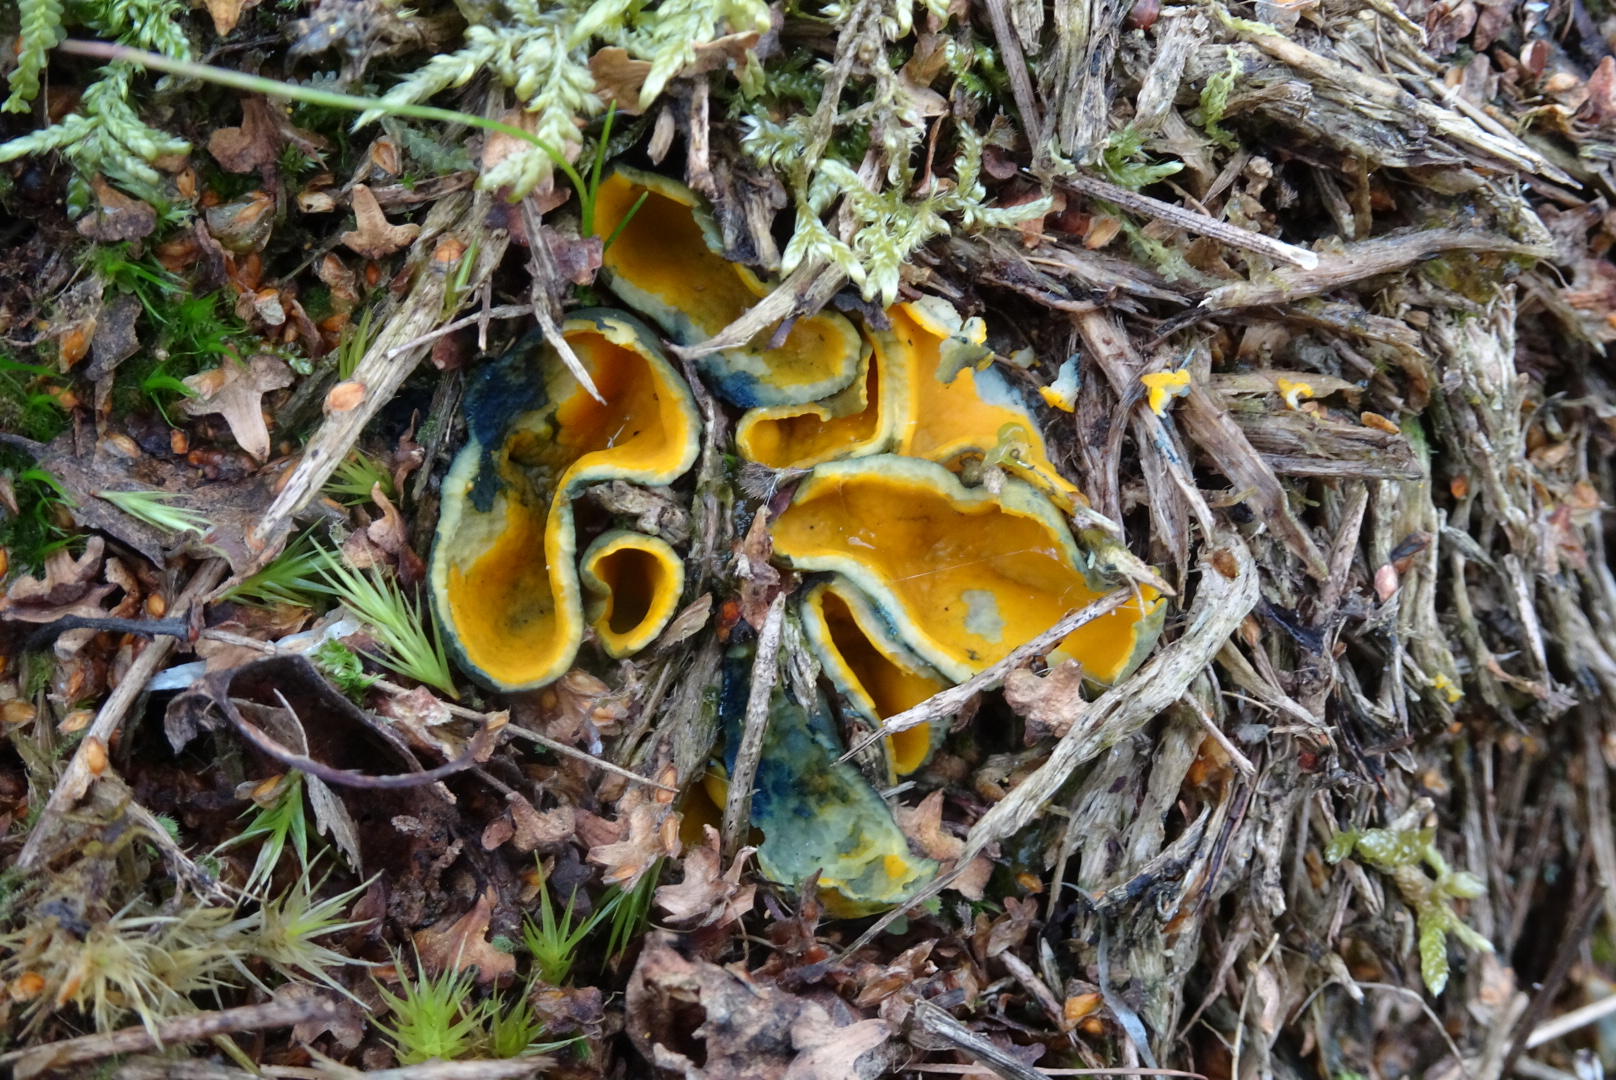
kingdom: Fungi
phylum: Ascomycota
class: Pezizomycetes
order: Pezizales
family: Caloscyphaceae
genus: Caloscypha
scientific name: Caloscypha fulgens
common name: jadebæger
